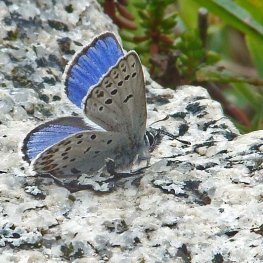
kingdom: Animalia
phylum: Arthropoda
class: Insecta
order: Lepidoptera
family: Lycaenidae
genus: Lycaeides
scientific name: Lycaeides idas
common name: Northern Blue
